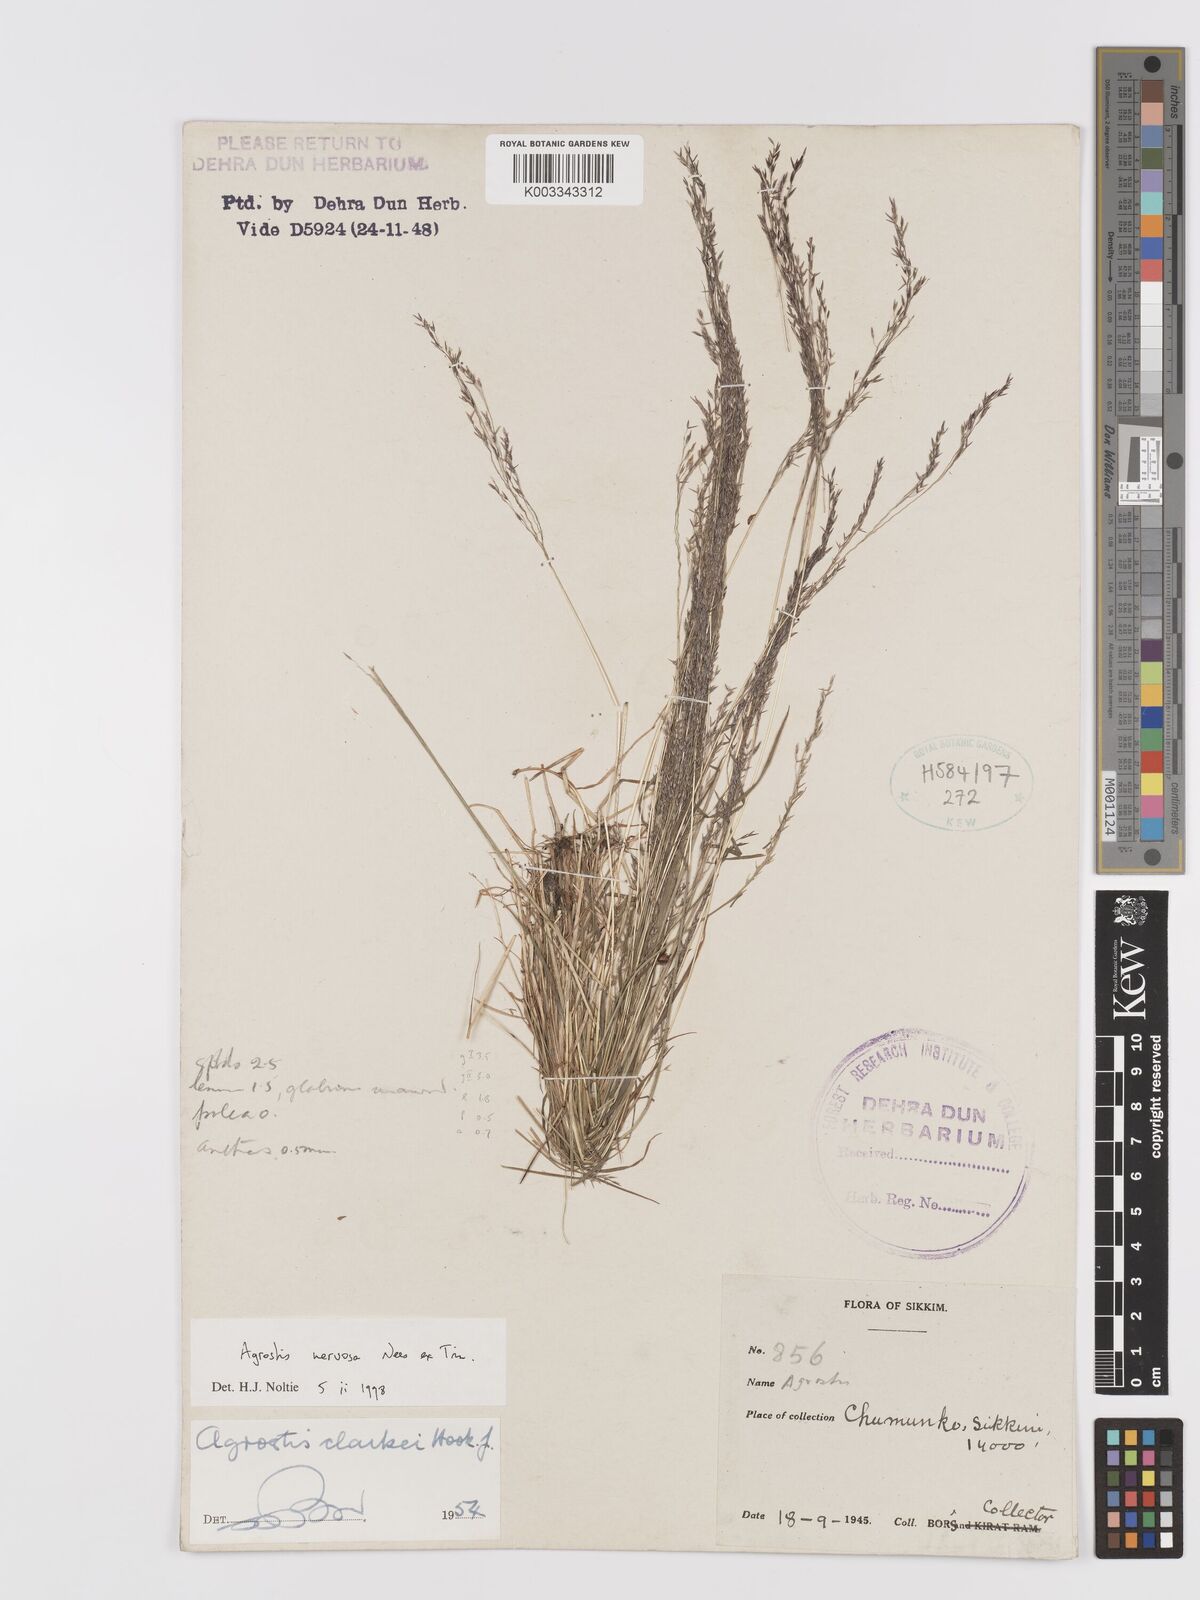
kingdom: Plantae
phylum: Tracheophyta
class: Liliopsida
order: Poales
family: Poaceae
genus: Agrostis
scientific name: Agrostis nervosa
